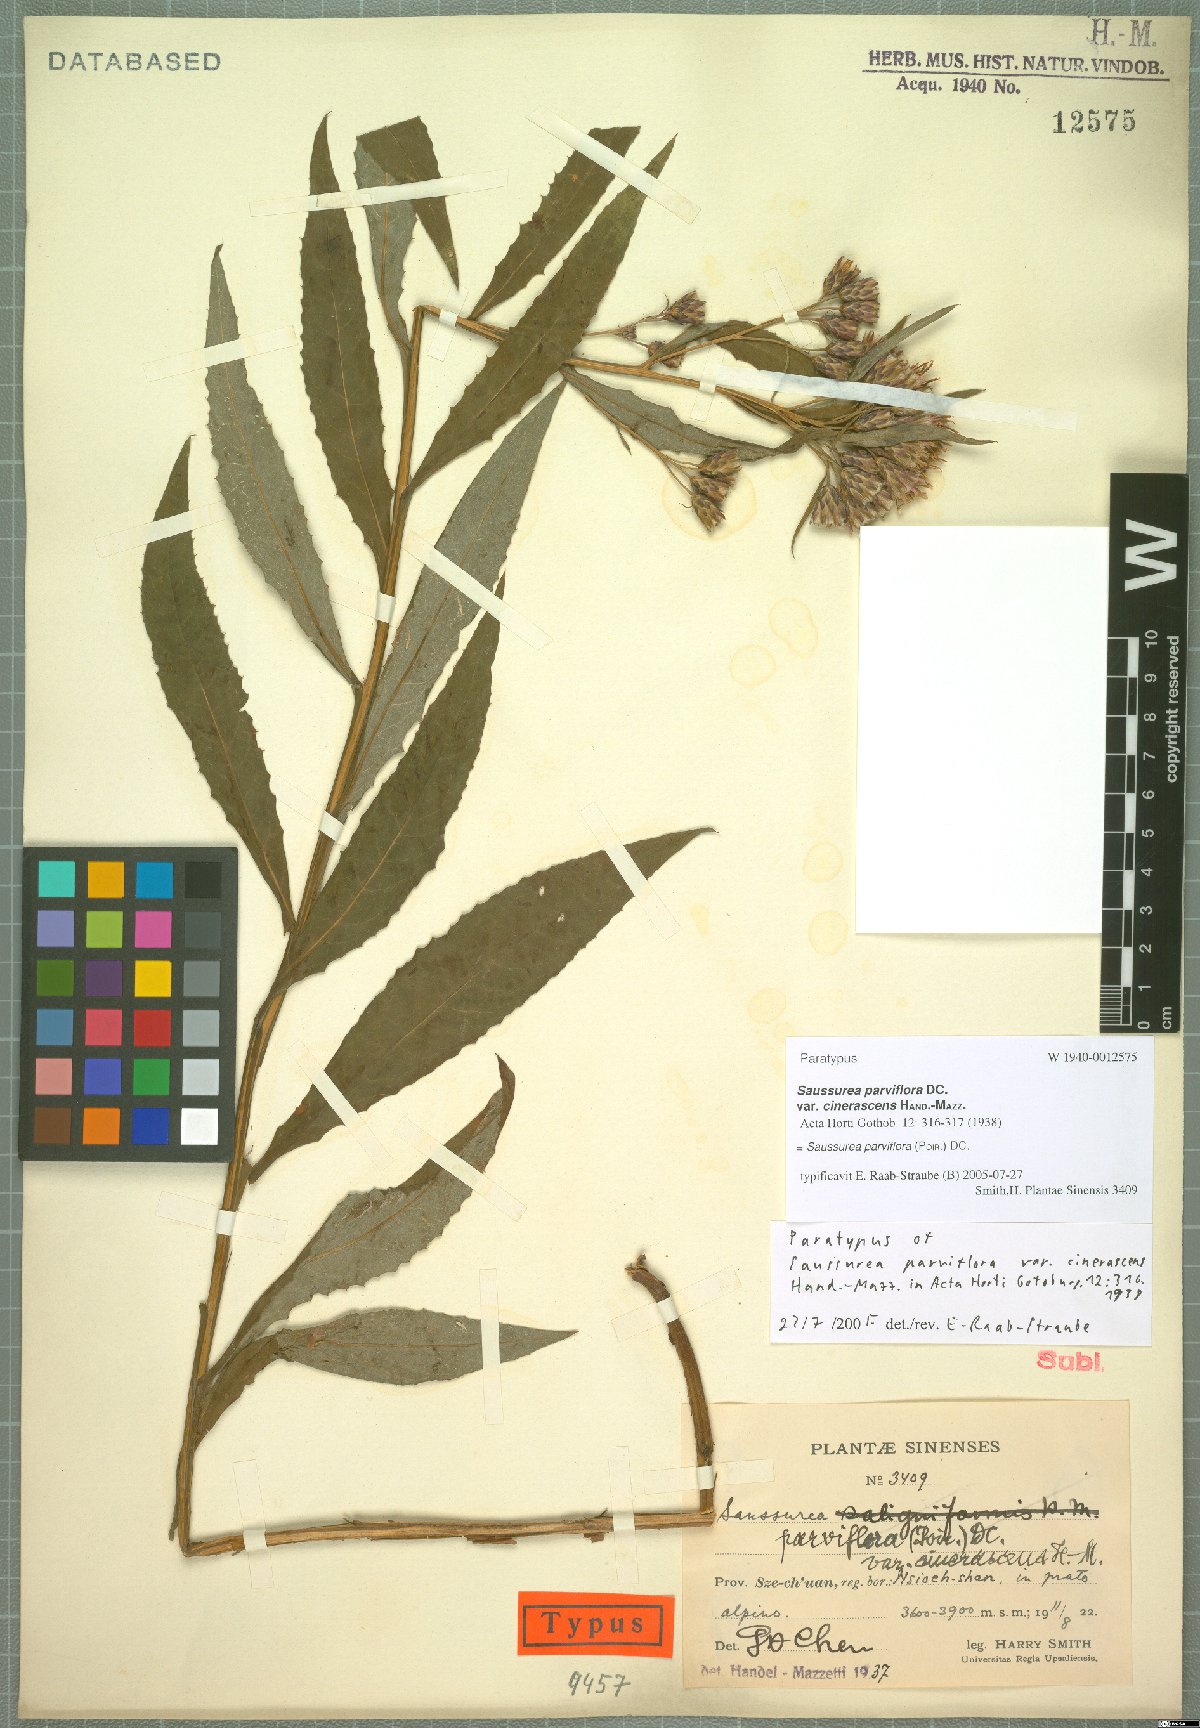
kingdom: Plantae
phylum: Tracheophyta
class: Magnoliopsida
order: Asterales
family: Asteraceae
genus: Saussurea
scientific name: Saussurea parviflora
